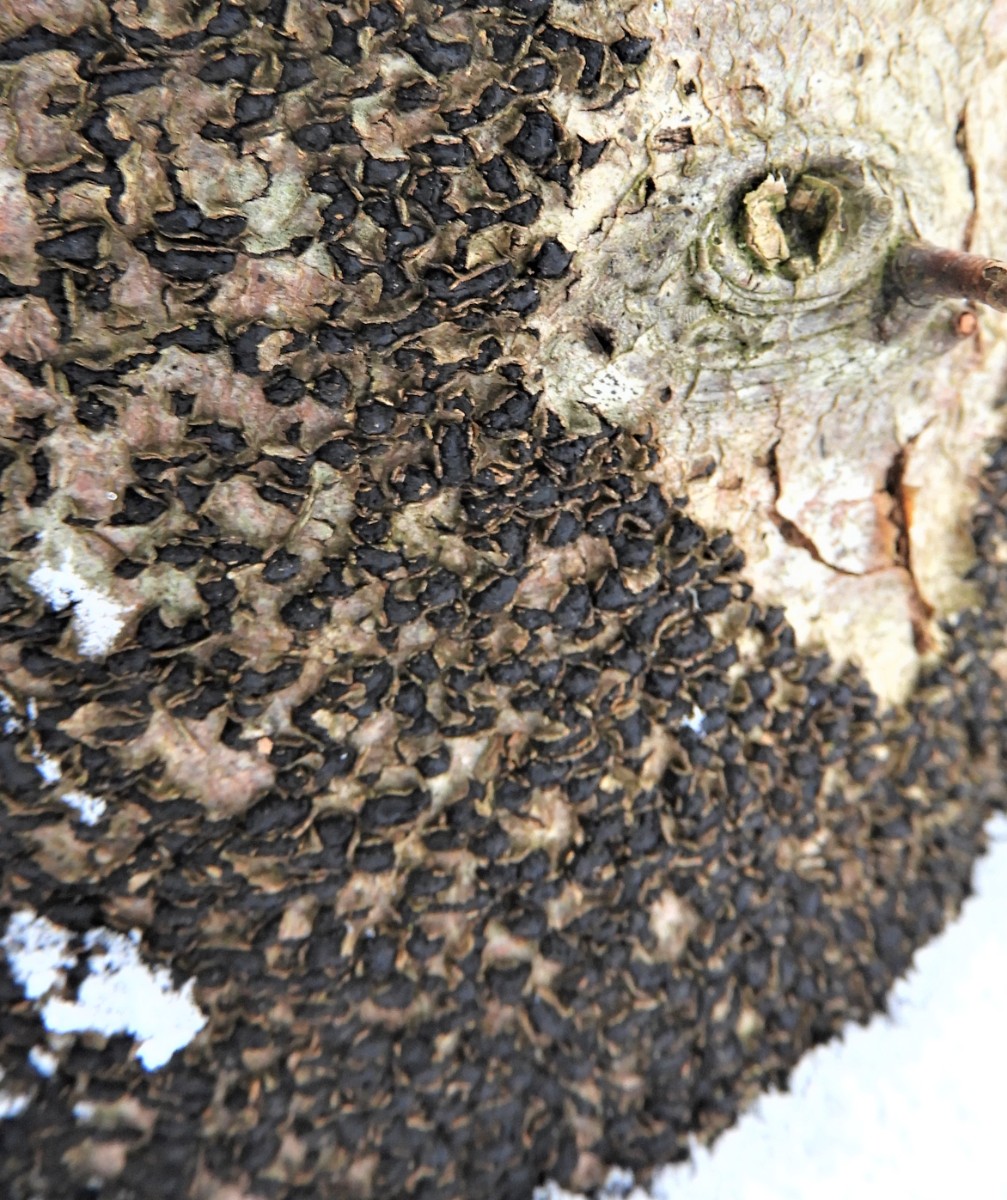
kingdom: Fungi
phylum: Ascomycota
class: Sordariomycetes
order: Xylariales
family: Melogrammataceae
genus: Melogramma
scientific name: Melogramma spiniferum
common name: bøgefod-kulhals
